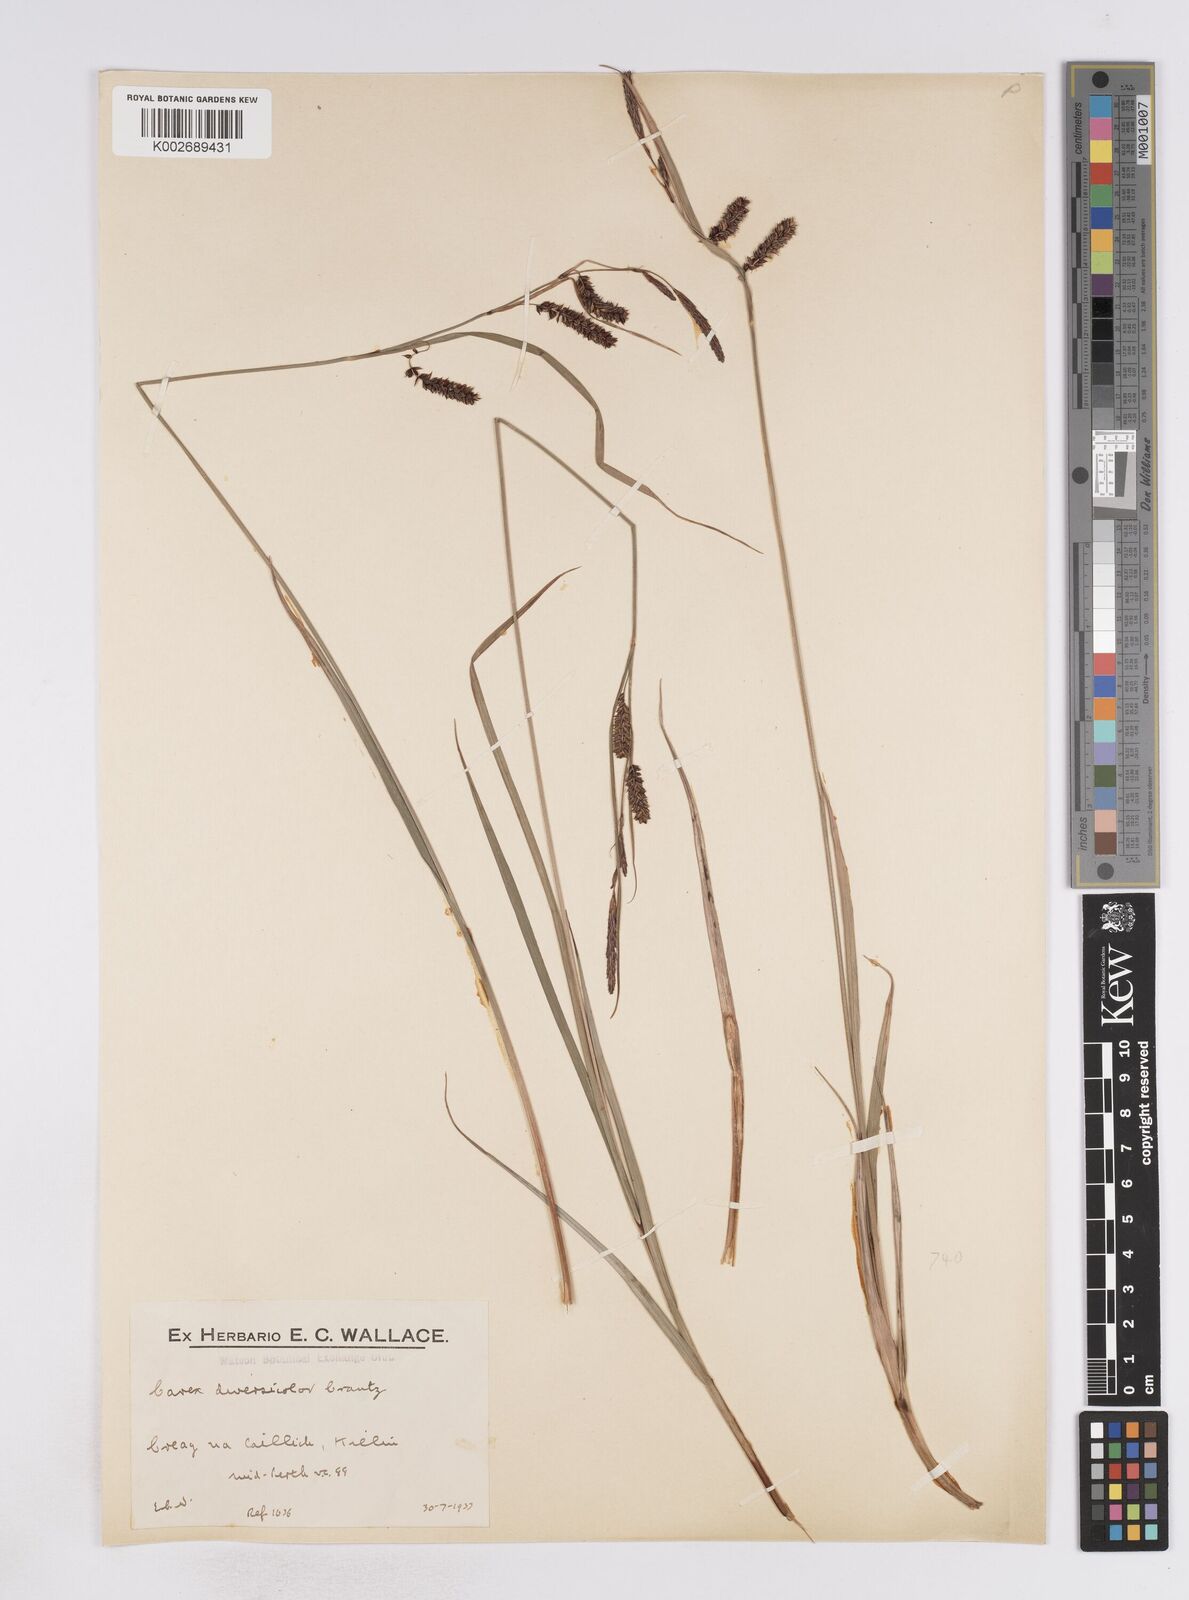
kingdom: Plantae
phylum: Tracheophyta
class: Liliopsida
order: Poales
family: Cyperaceae
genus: Carex
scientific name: Carex flacca
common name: Glaucous sedge
